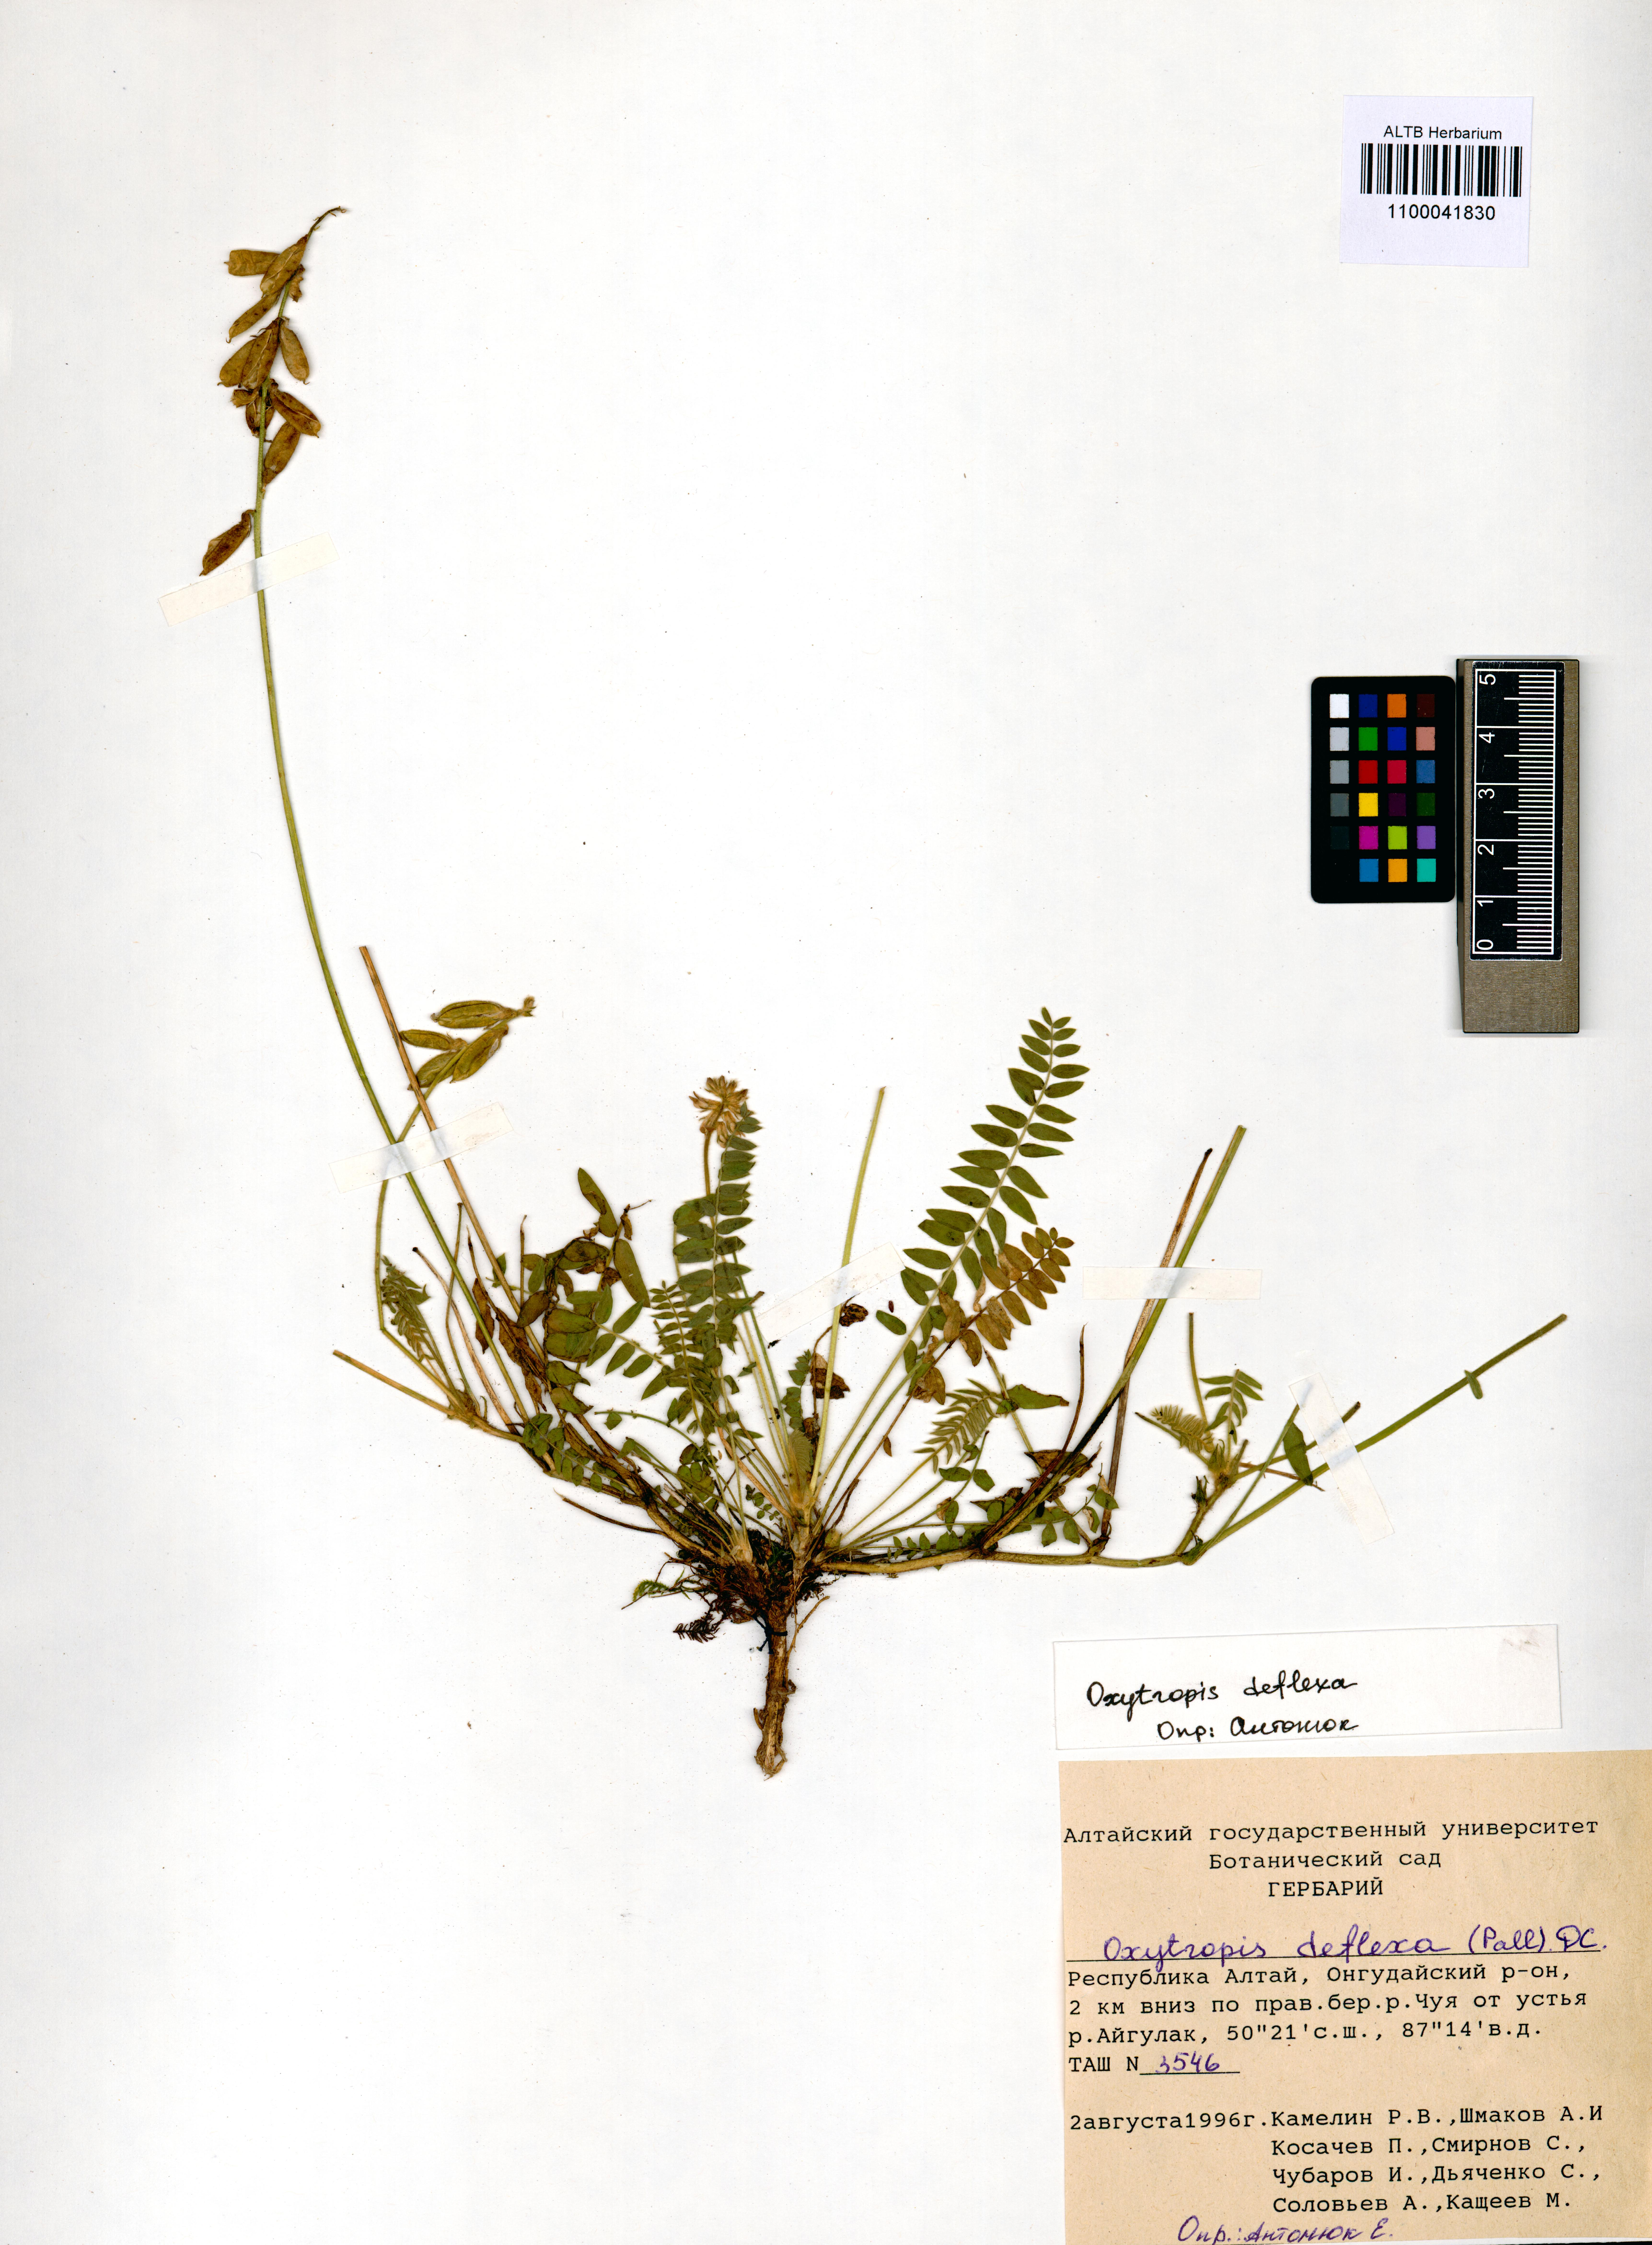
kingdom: Plantae
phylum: Tracheophyta
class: Magnoliopsida
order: Fabales
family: Fabaceae
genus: Oxytropis
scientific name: Oxytropis deflexa
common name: Stemmed oxytrope
